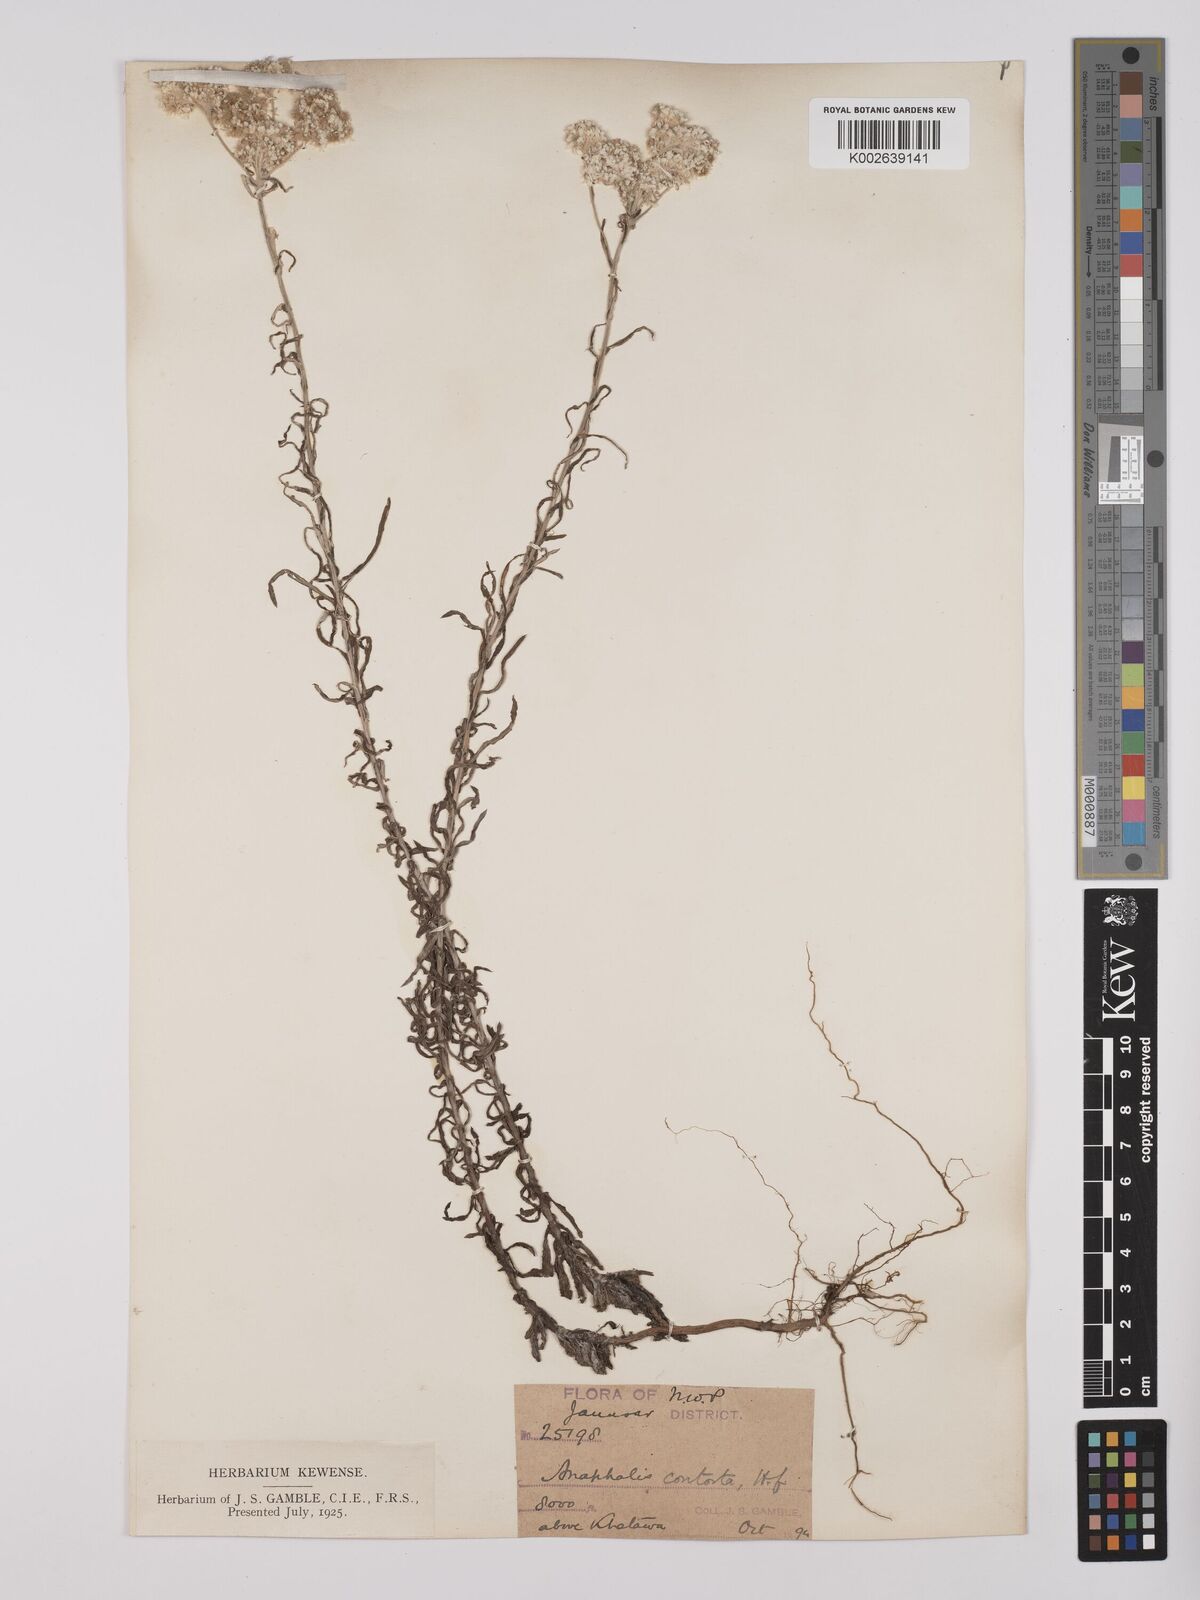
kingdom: Plantae
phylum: Tracheophyta
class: Magnoliopsida
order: Asterales
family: Asteraceae
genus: Anaphalis
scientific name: Anaphalis contorta
